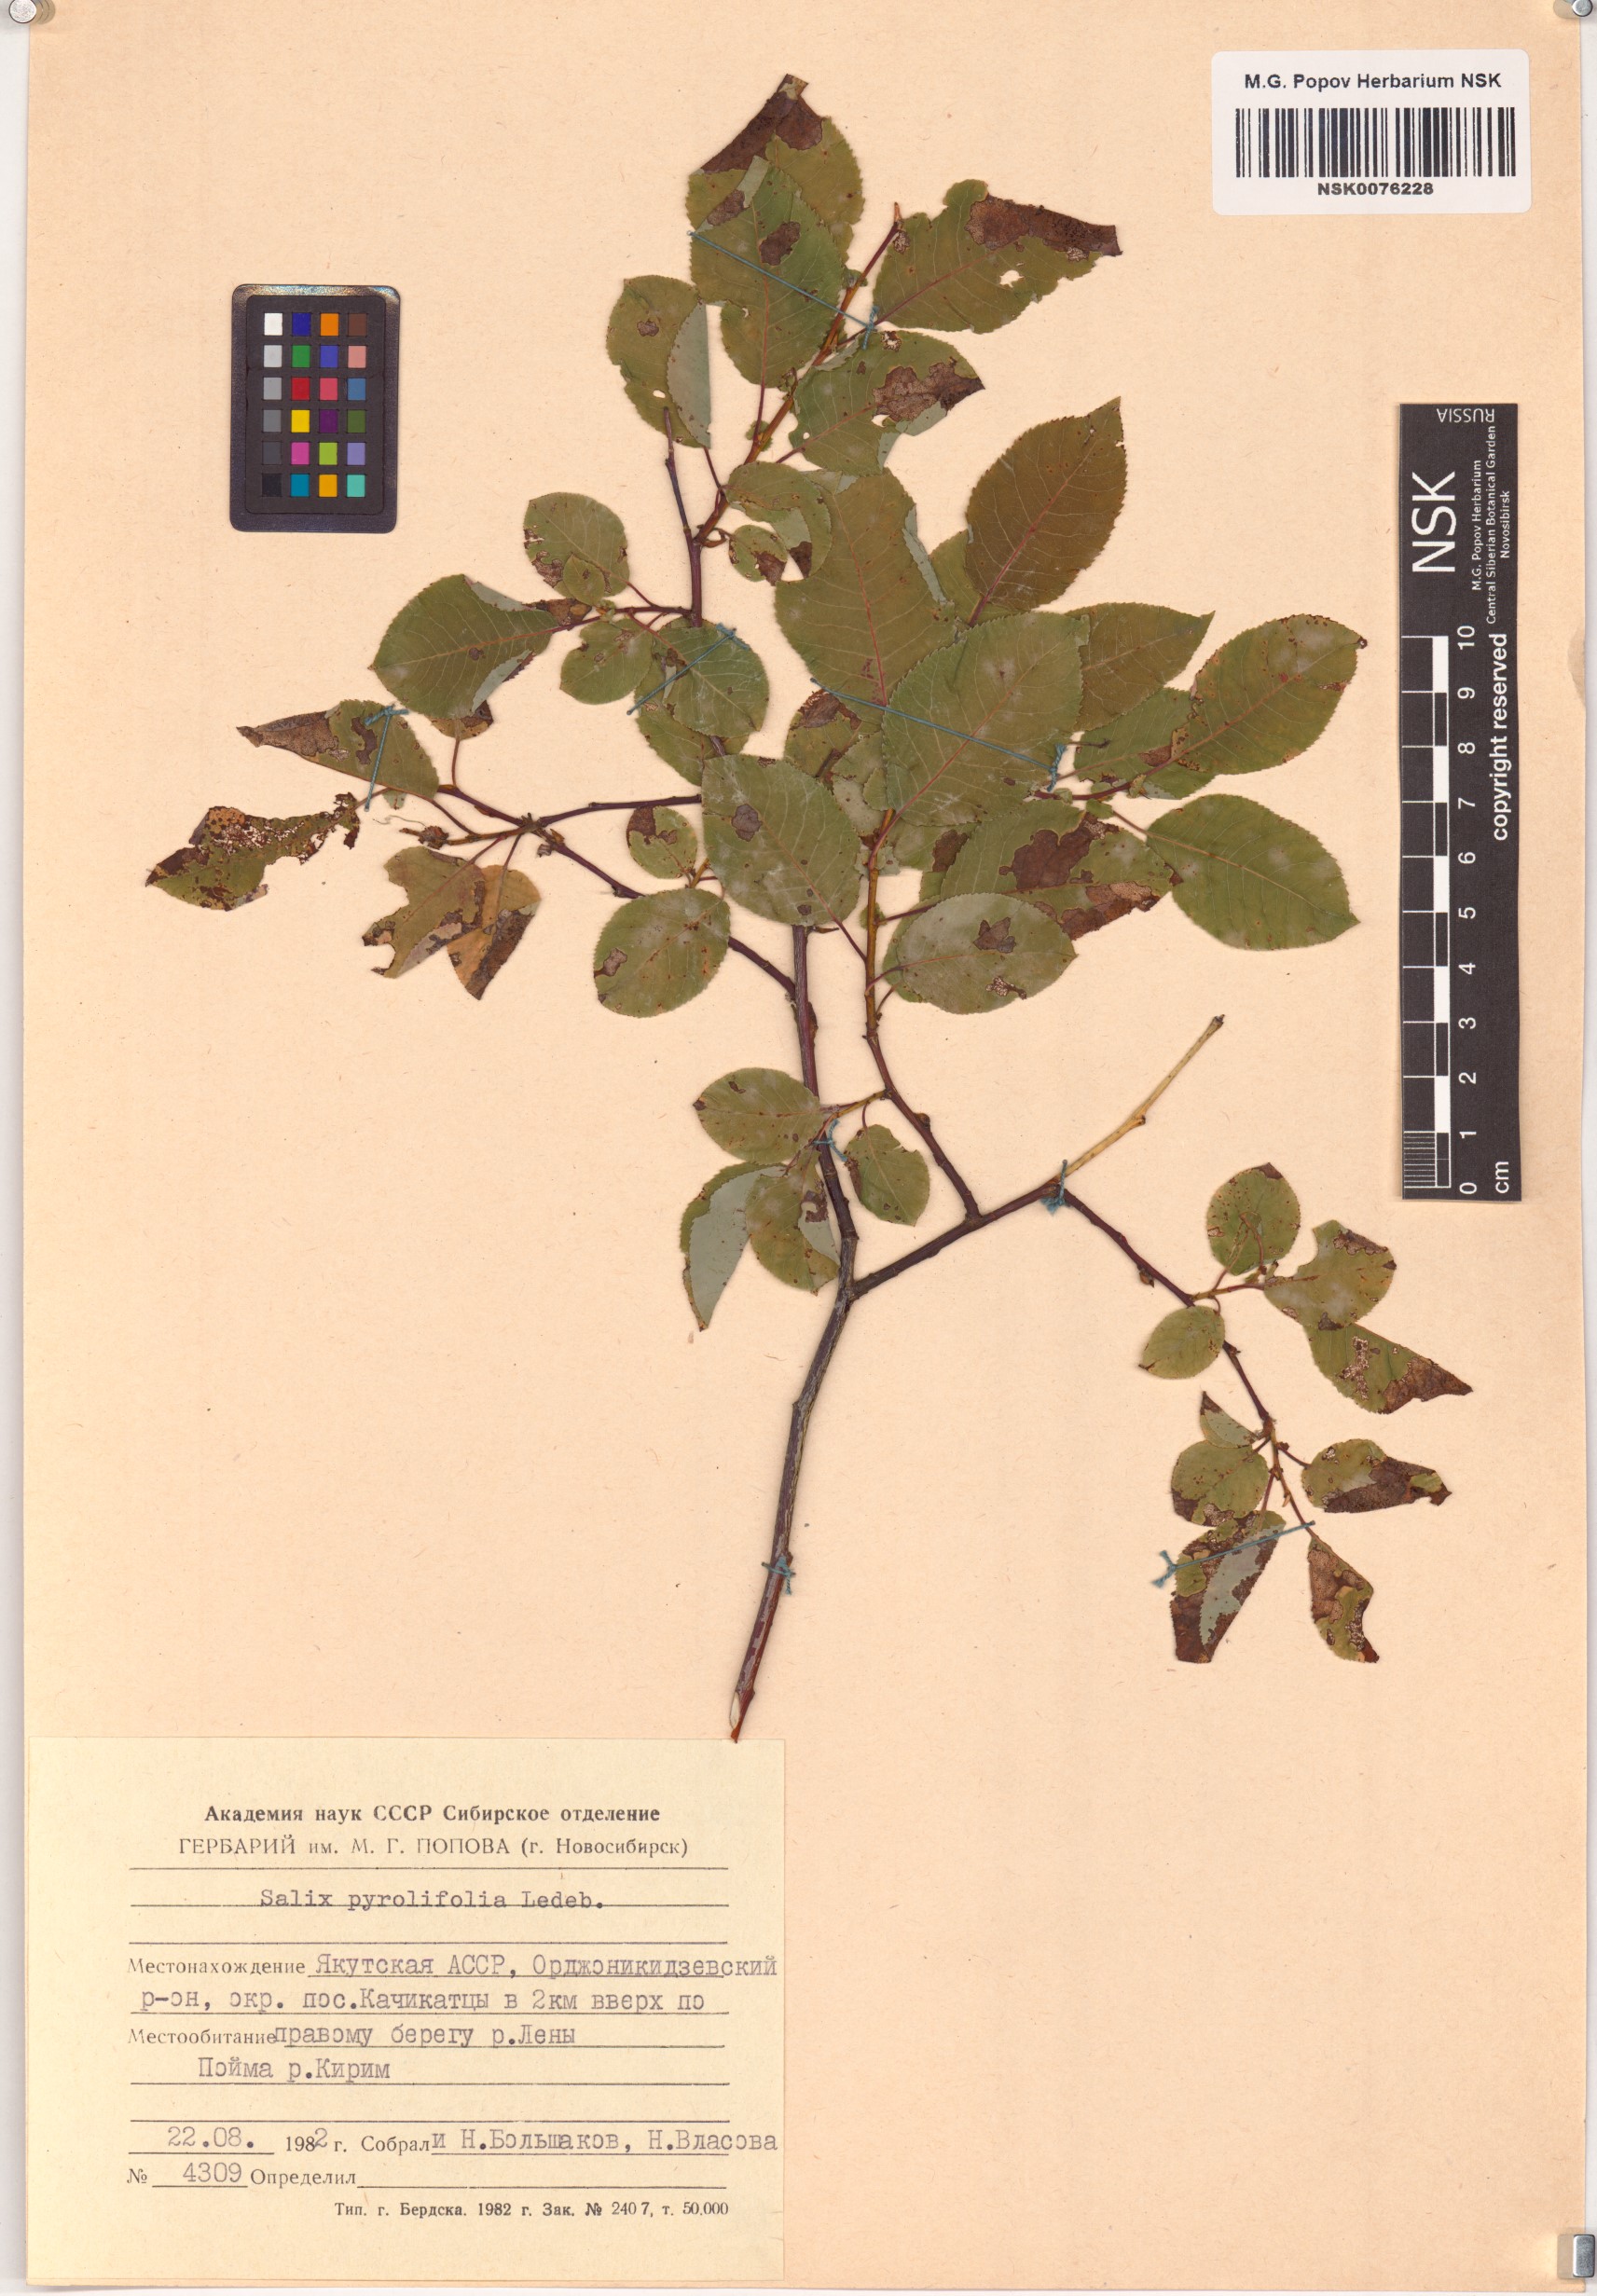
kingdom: Plantae
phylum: Tracheophyta
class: Magnoliopsida
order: Malpighiales
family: Salicaceae
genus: Salix
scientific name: Salix pyrolifolia
